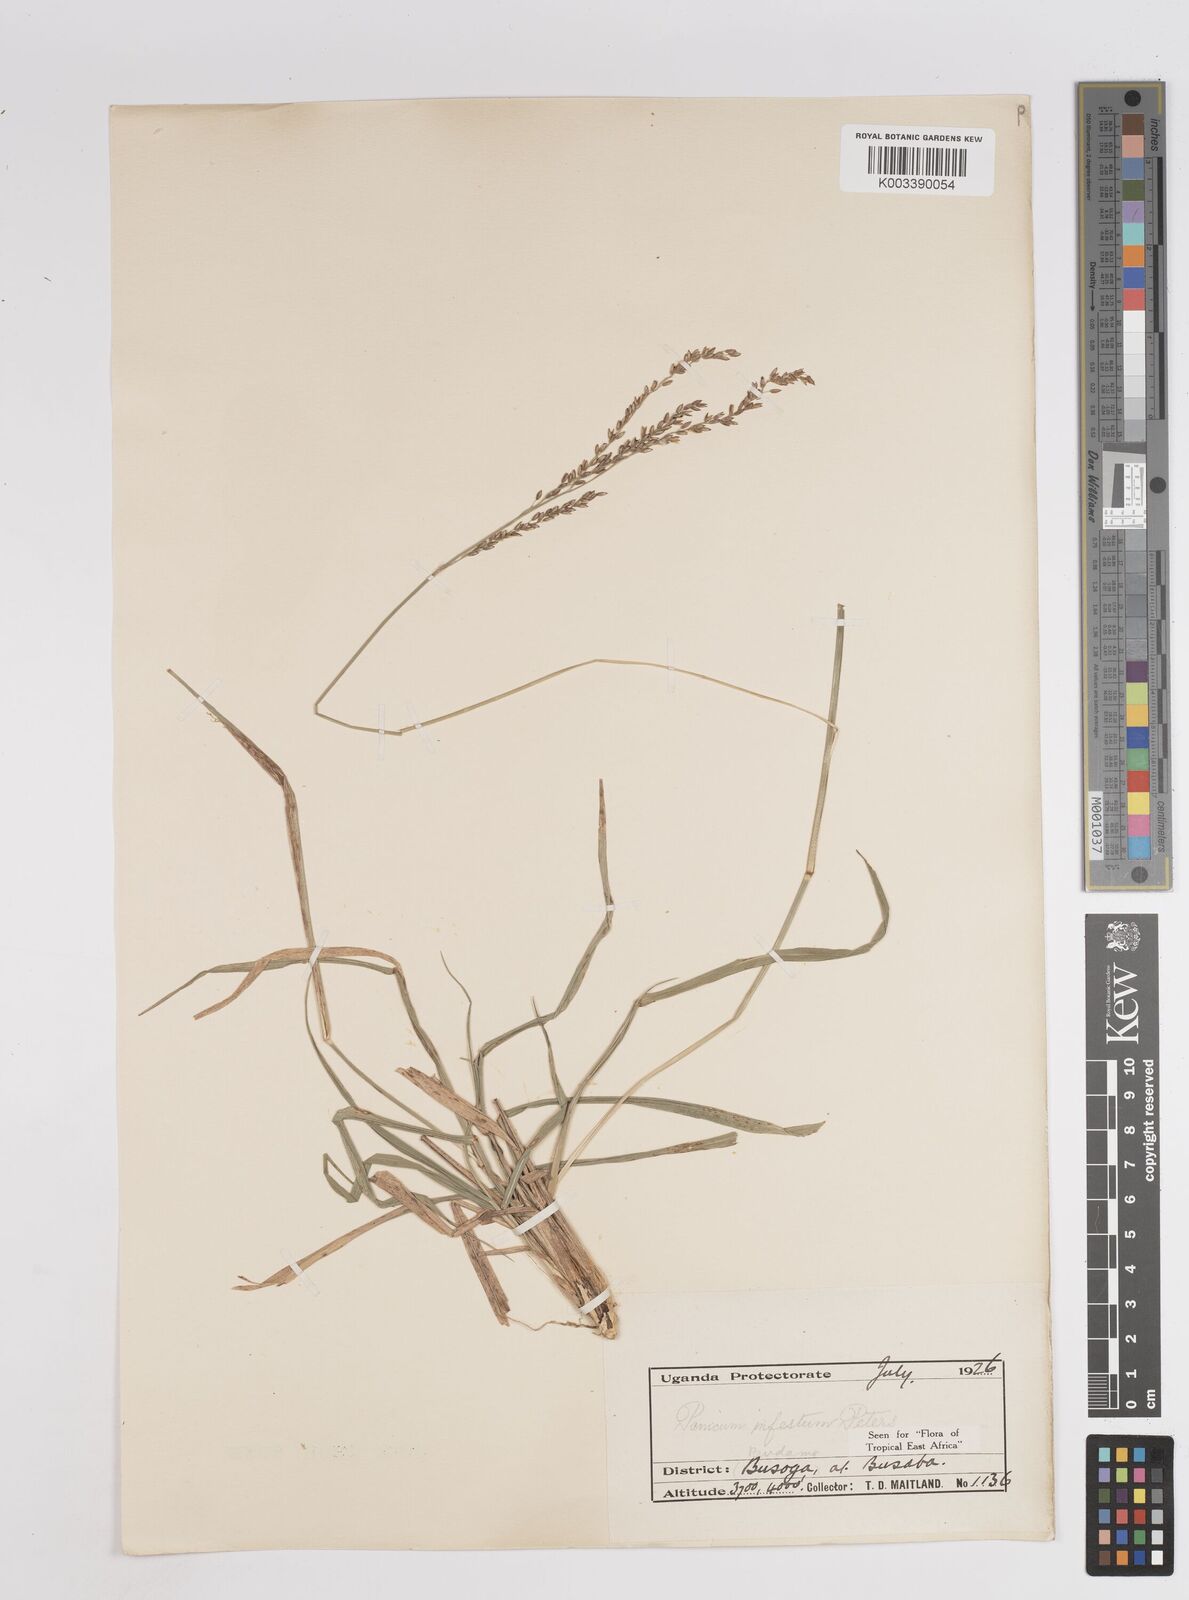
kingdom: Plantae
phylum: Tracheophyta
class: Liliopsida
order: Poales
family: Poaceae
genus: Megathyrsus
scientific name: Megathyrsus infestus
